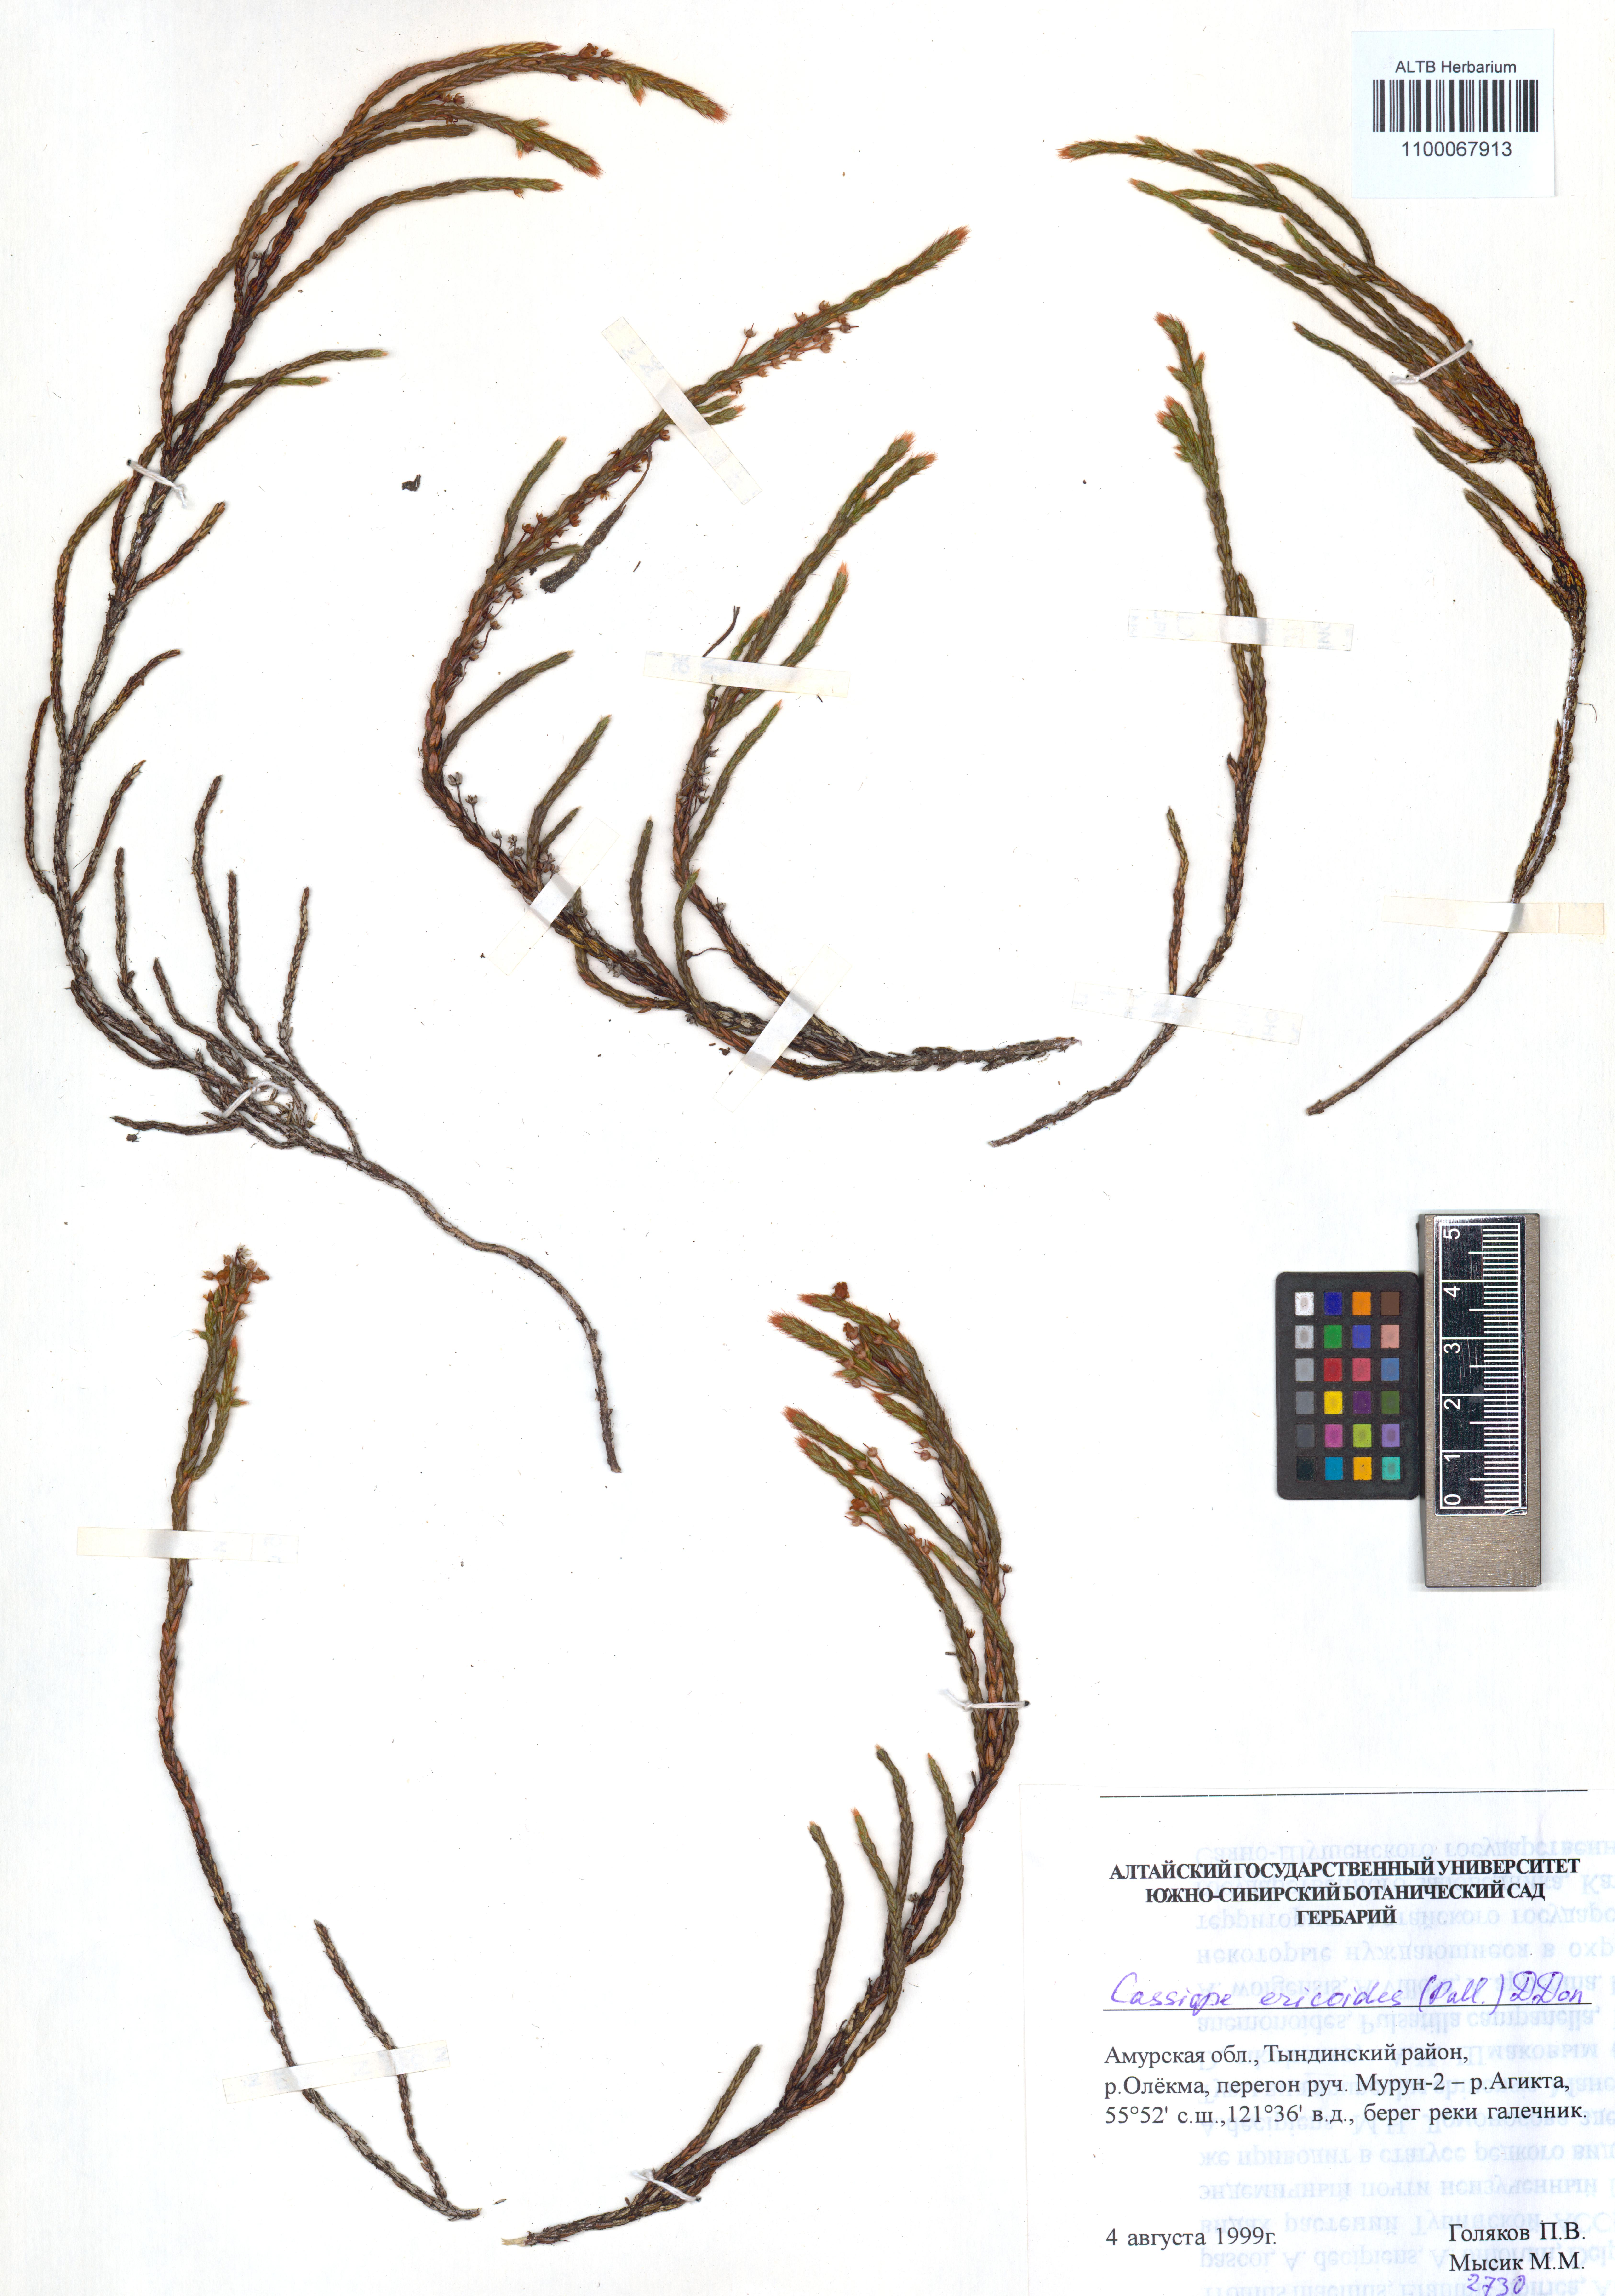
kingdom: Plantae
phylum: Tracheophyta
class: Magnoliopsida
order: Ericales
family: Ericaceae
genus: Cassiope
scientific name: Cassiope ericoides
